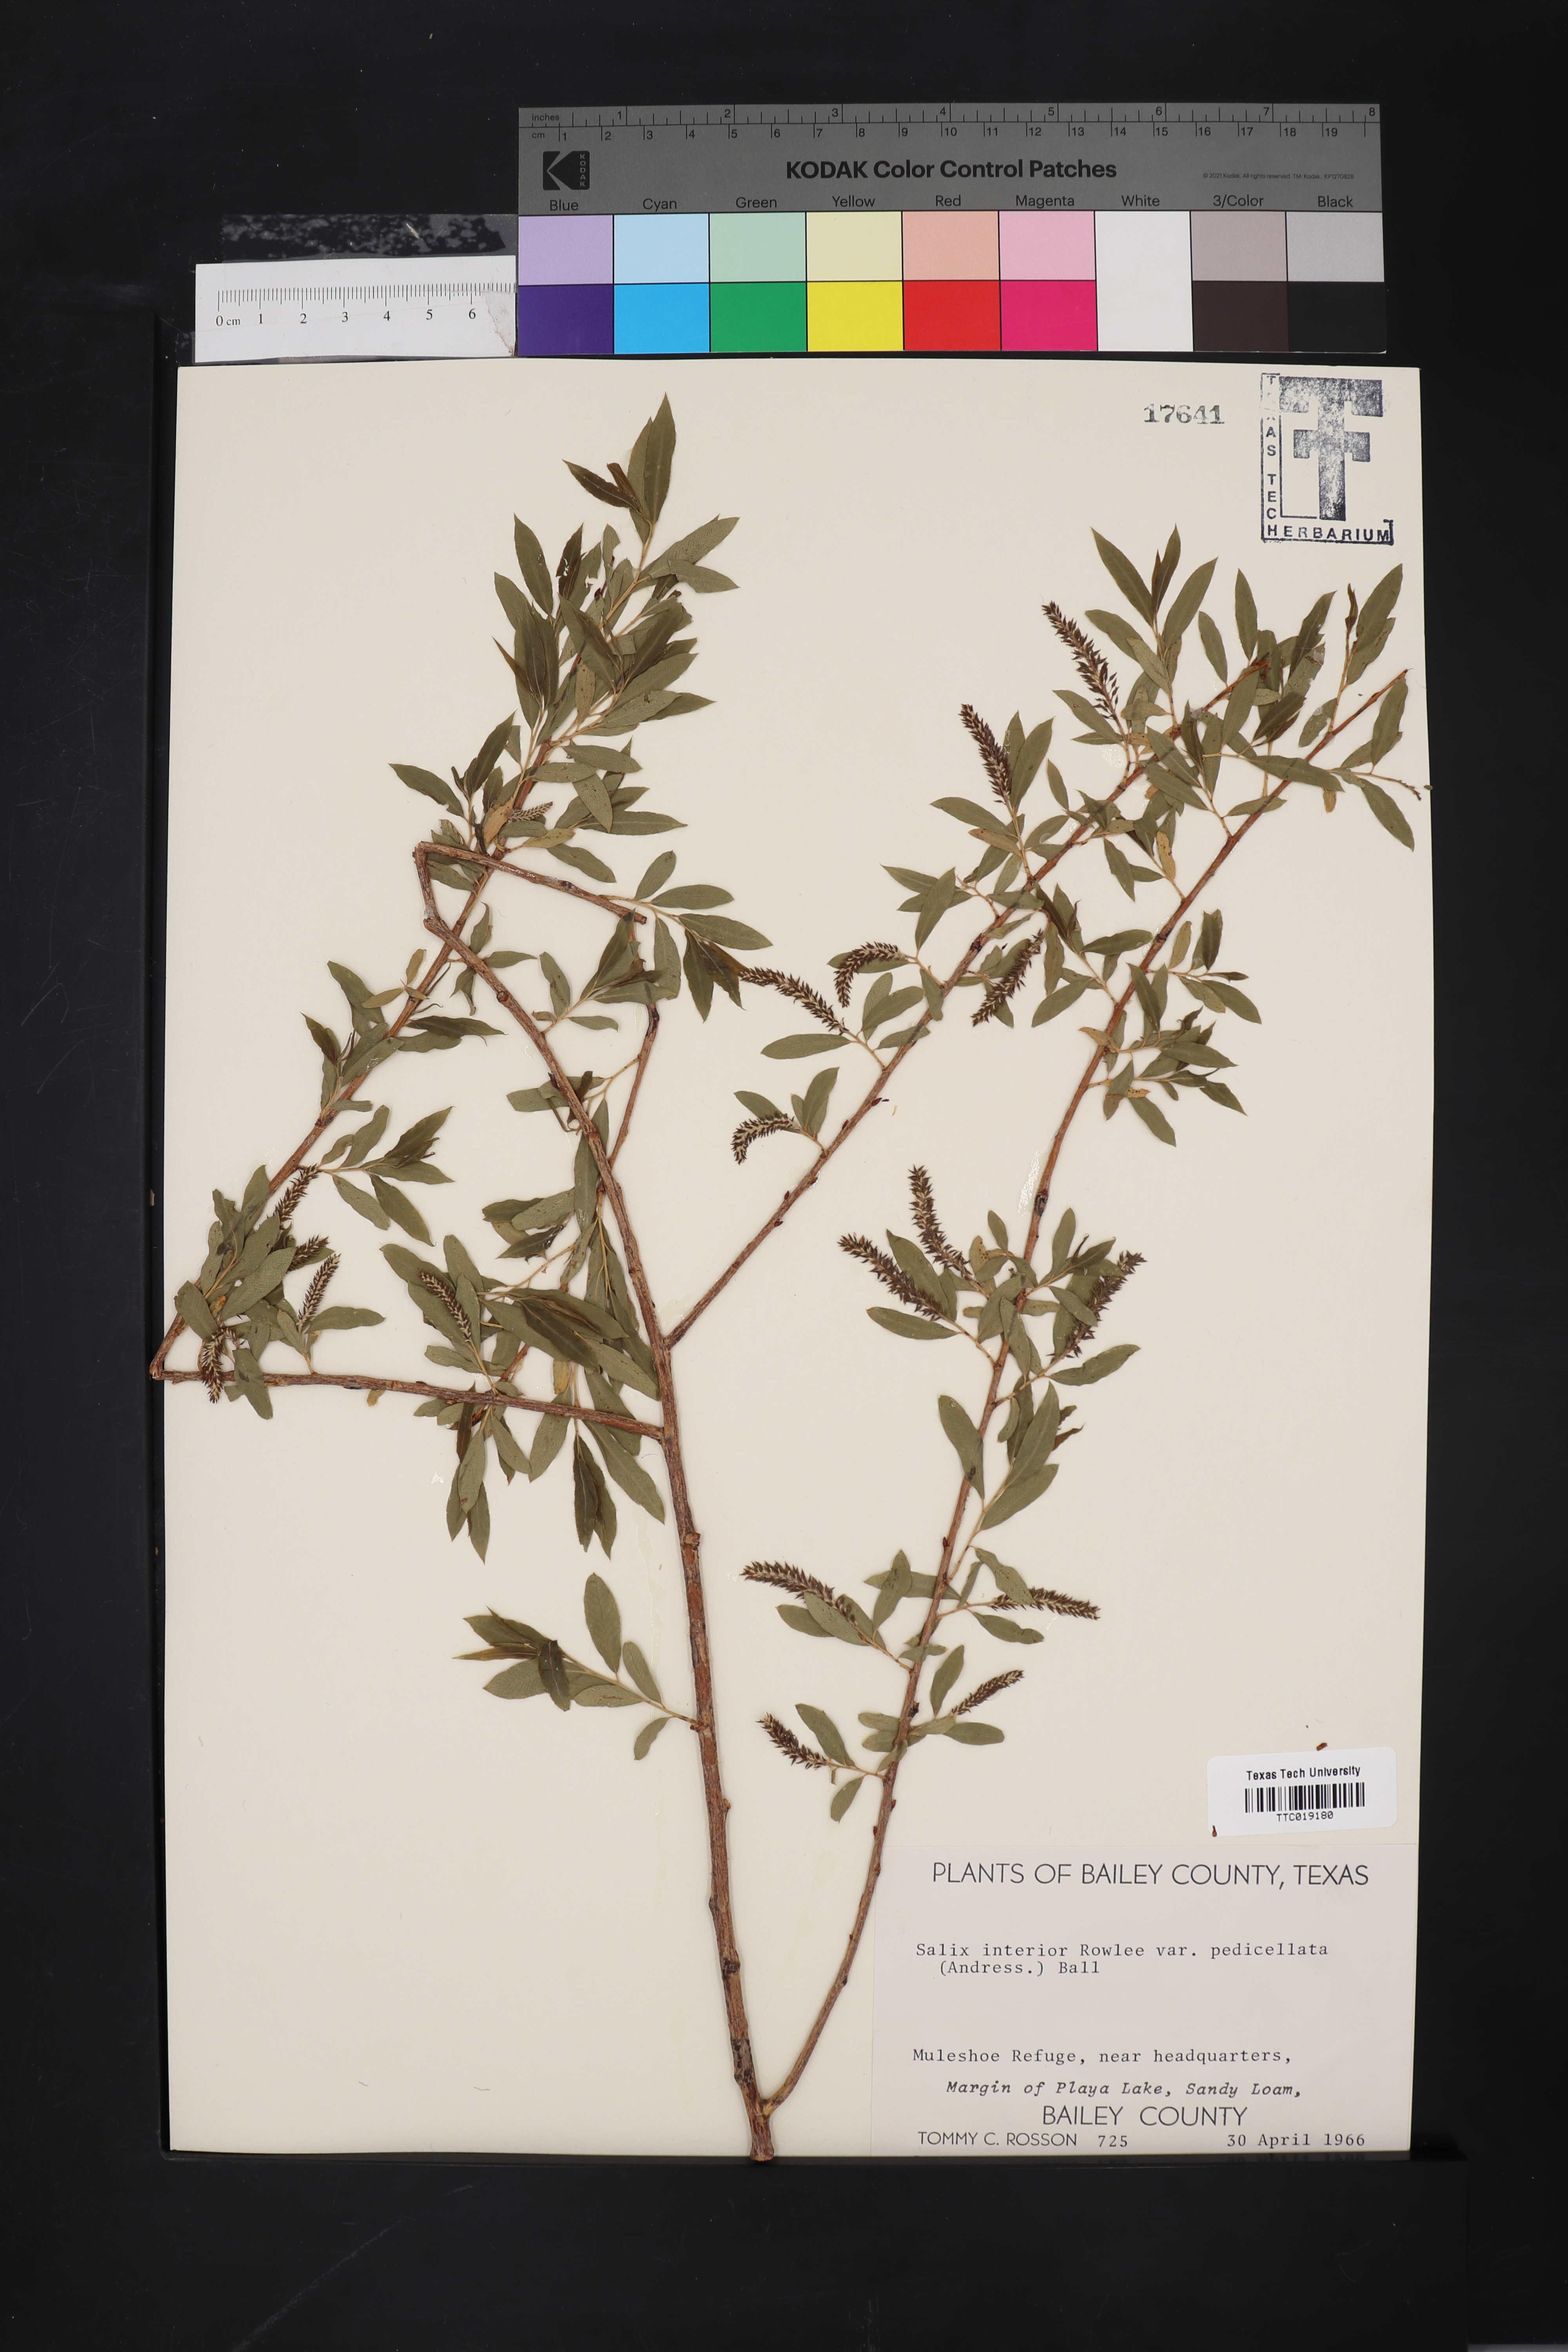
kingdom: Plantae
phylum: Tracheophyta
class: Magnoliopsida
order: Malpighiales
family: Salicaceae
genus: Salix
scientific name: Salix interior
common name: Sandbar willow
